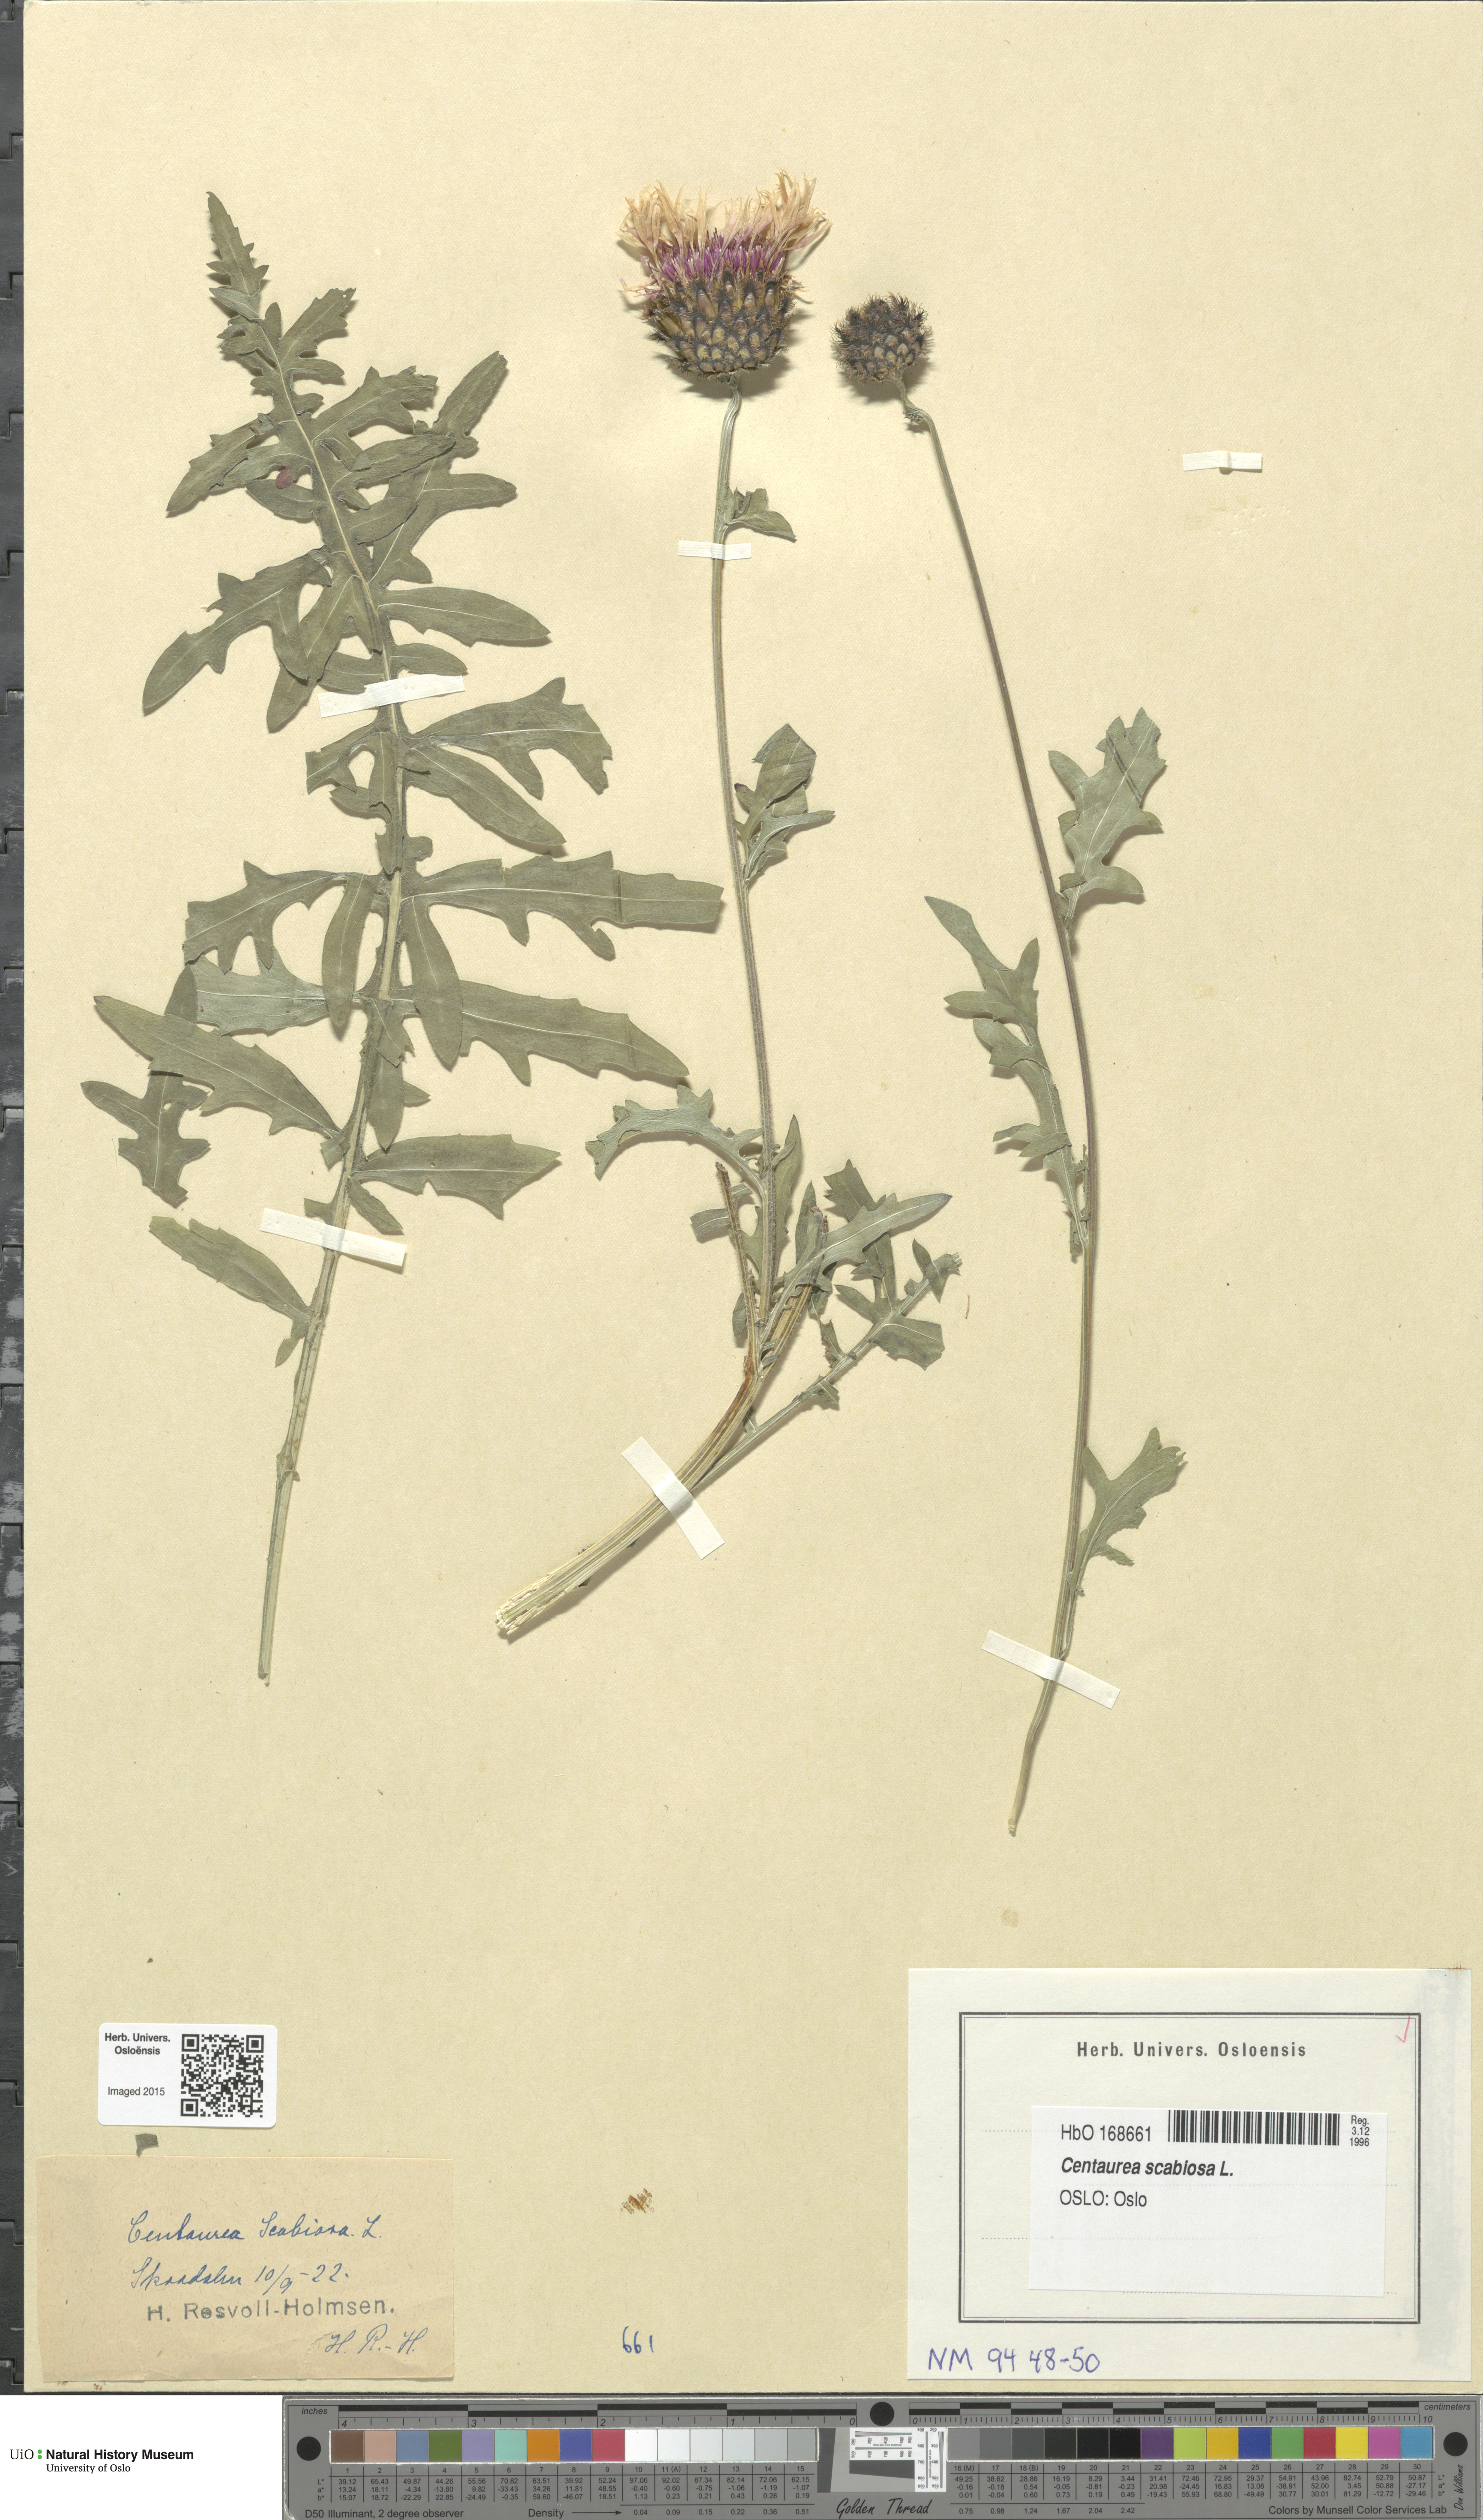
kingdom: Plantae
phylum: Tracheophyta
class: Magnoliopsida
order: Asterales
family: Asteraceae
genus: Centaurea
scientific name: Centaurea scabiosa
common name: Greater knapweed
